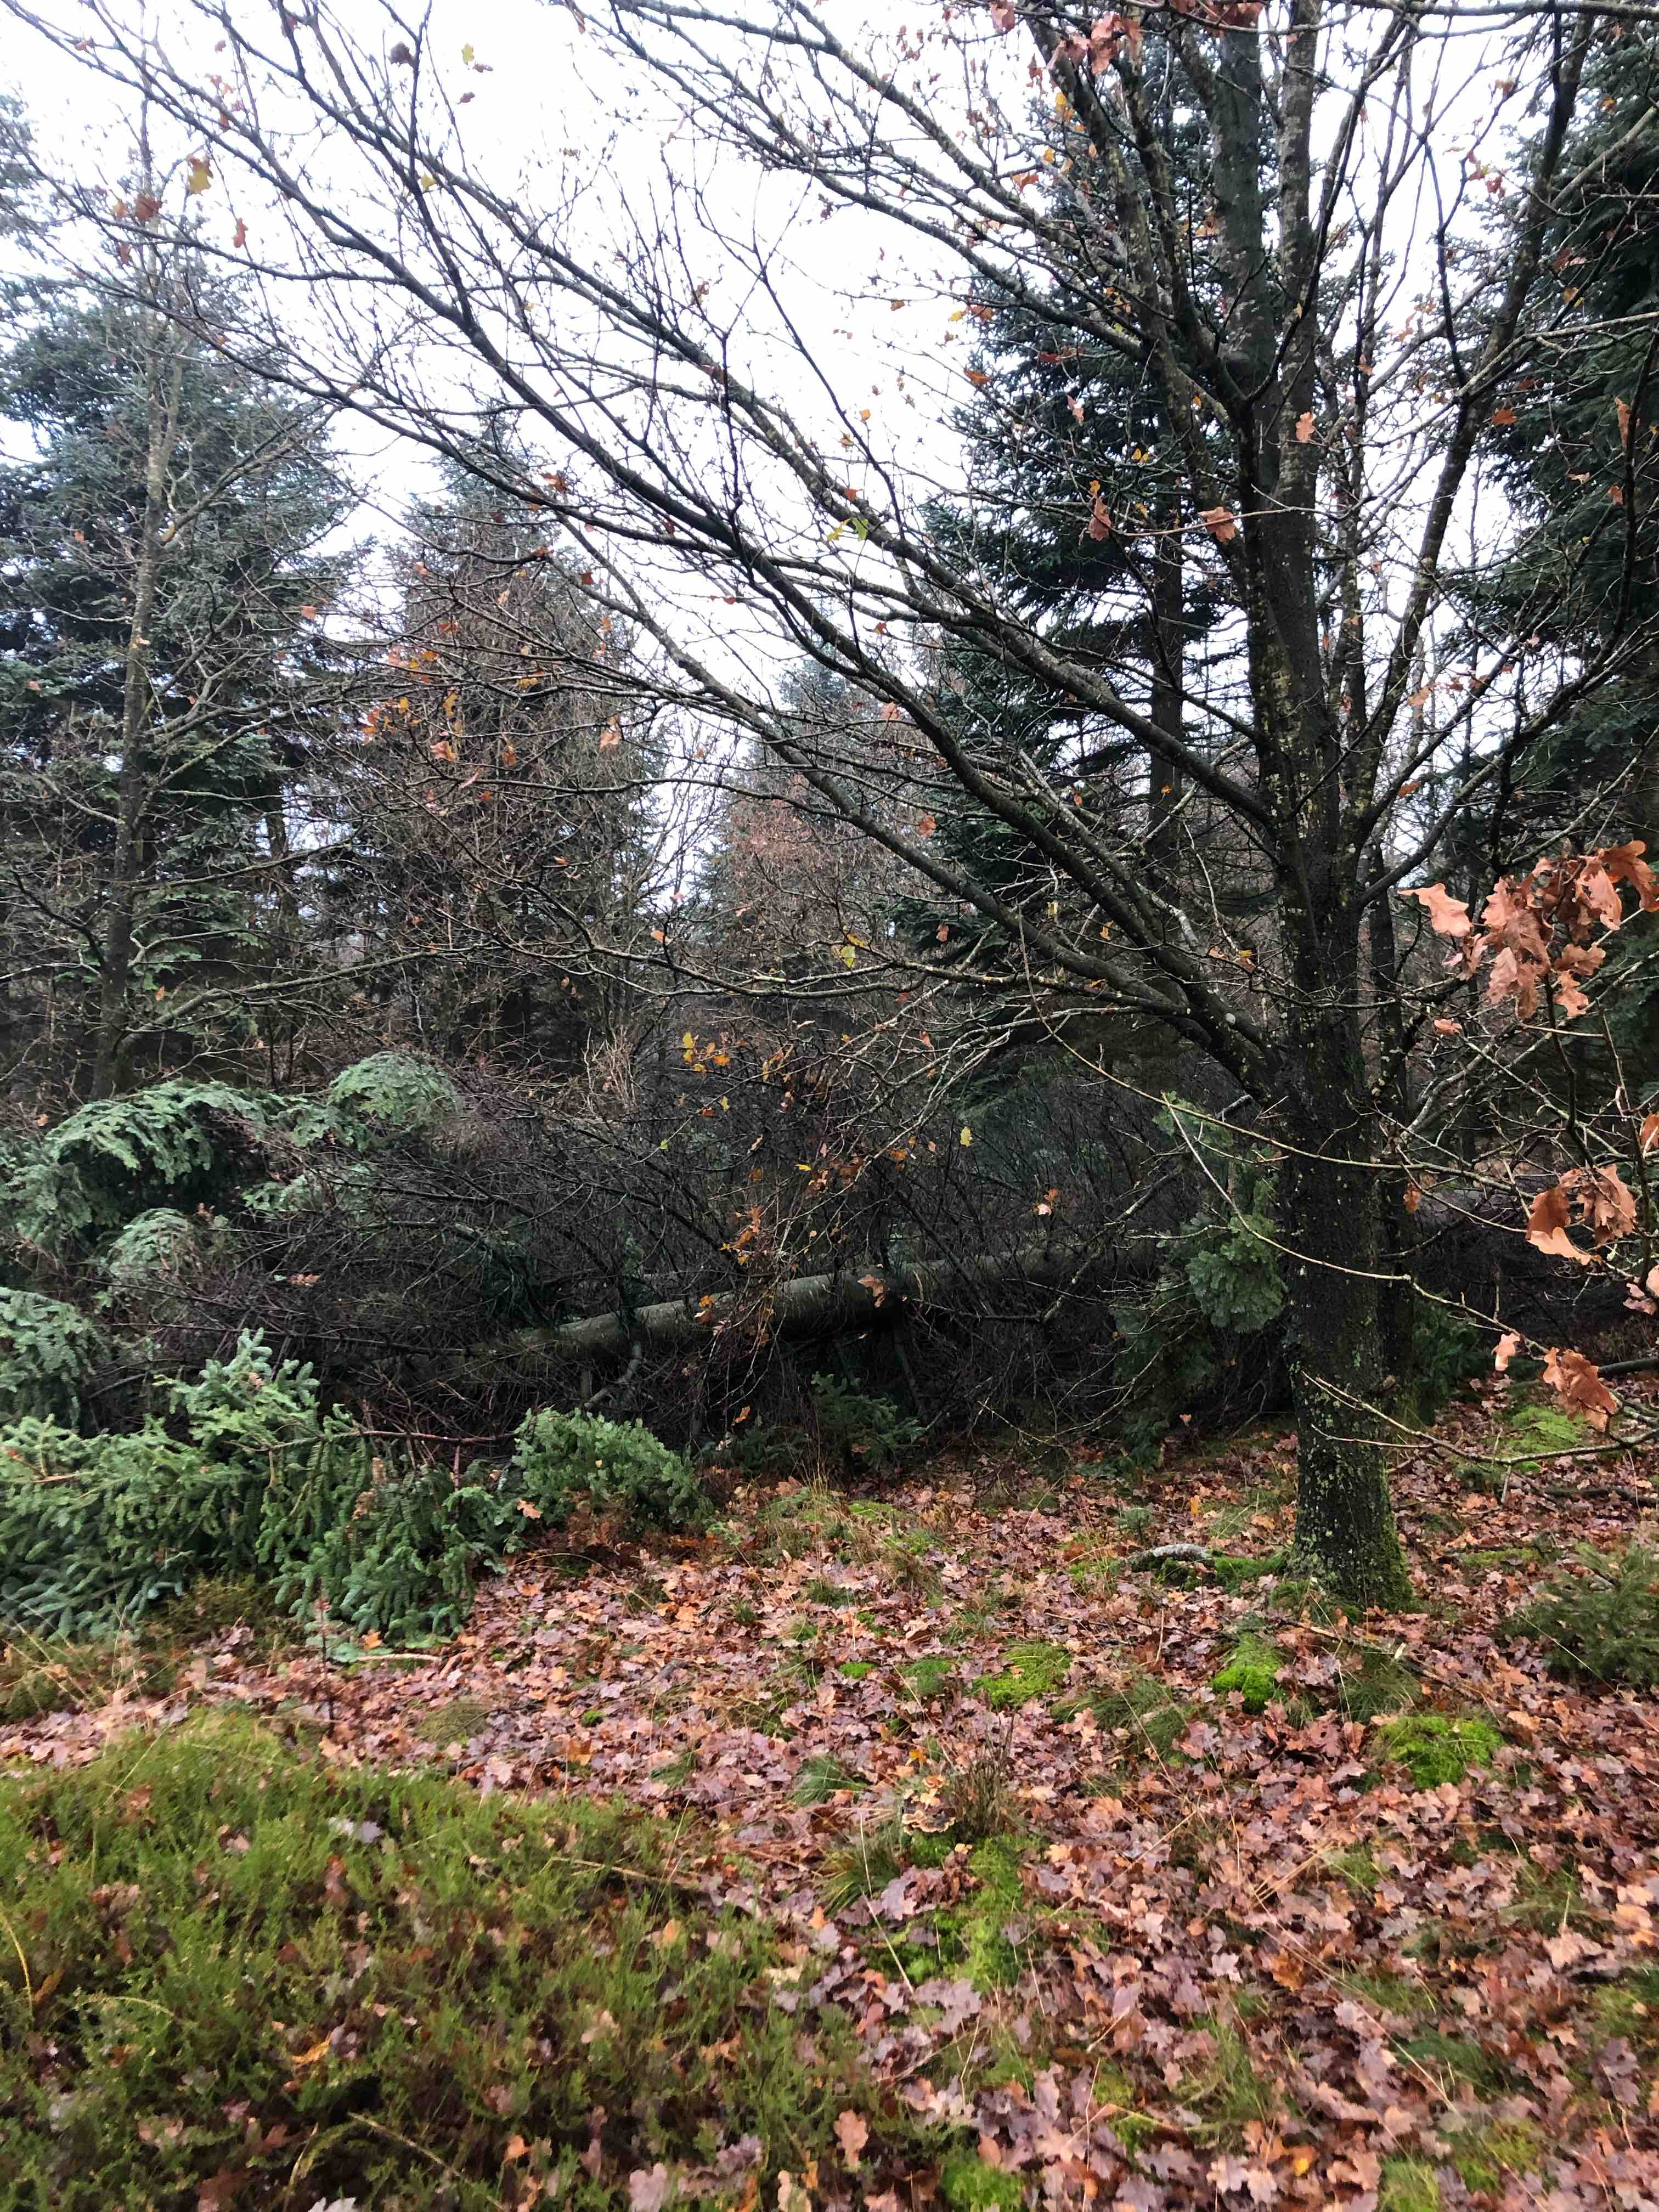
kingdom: Fungi
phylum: Basidiomycota
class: Agaricomycetes
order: Agaricales
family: Mycenaceae
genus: Panellus
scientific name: Panellus stipticus
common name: kliddet epaulethat
